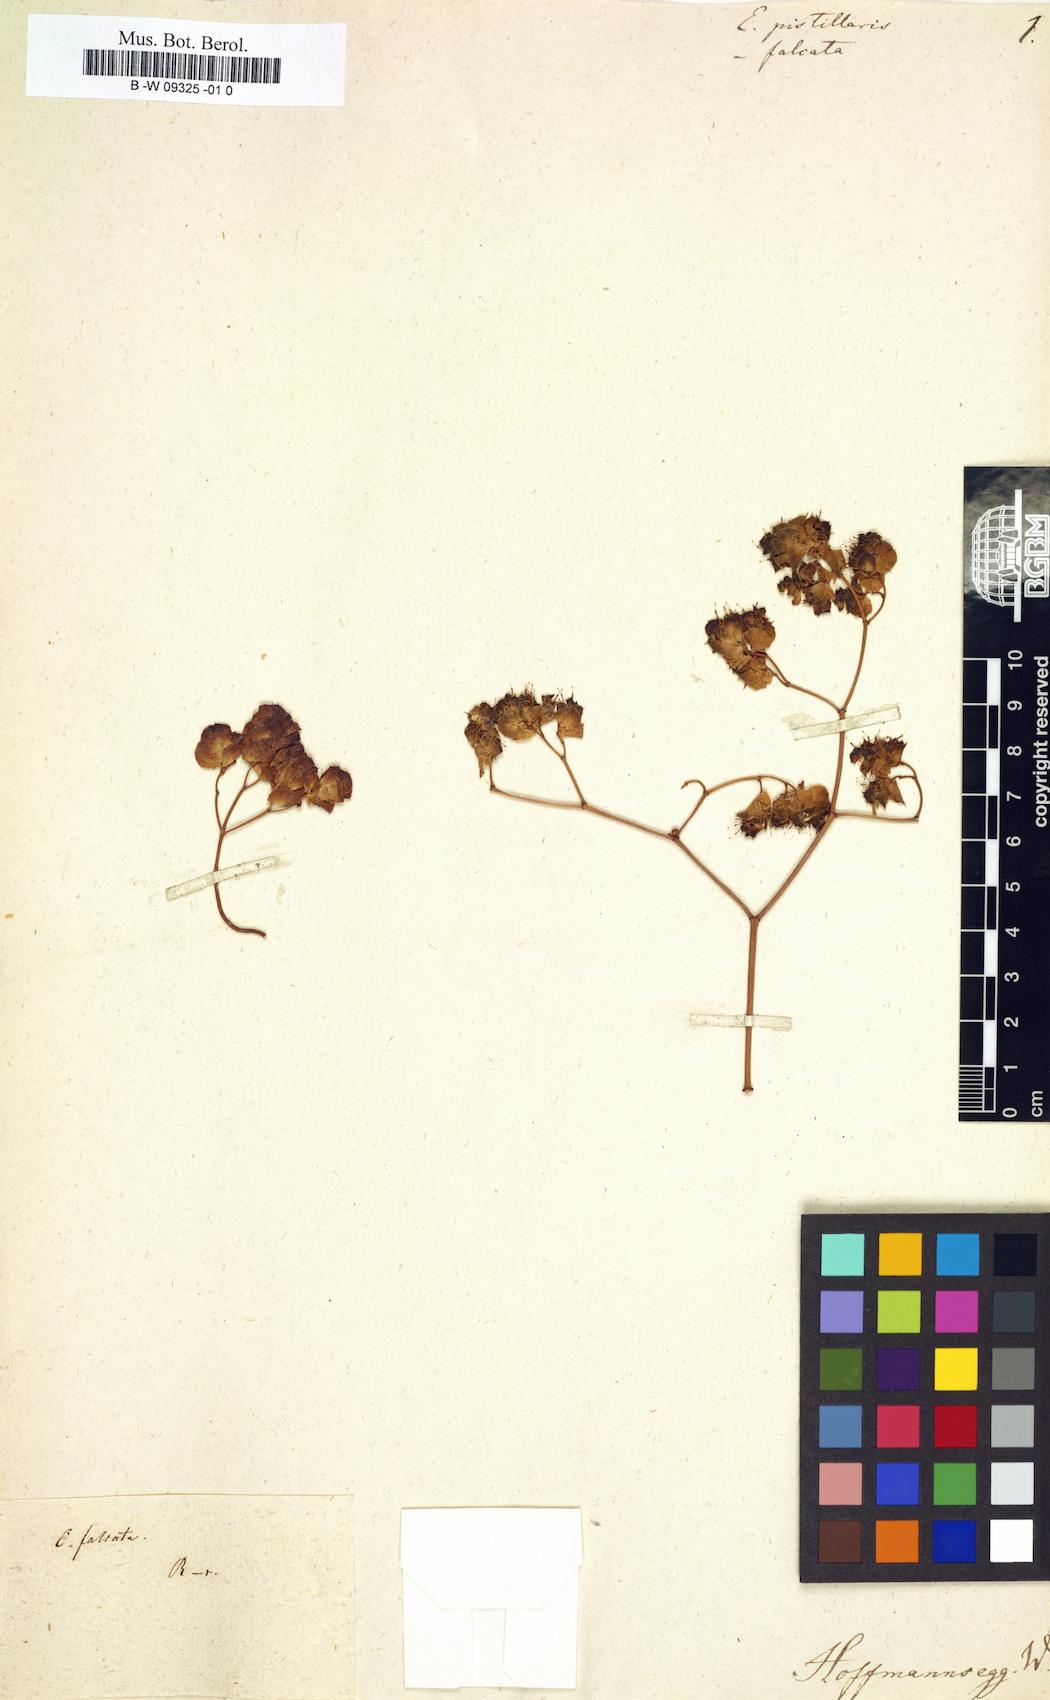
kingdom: Plantae
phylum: Tracheophyta
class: Magnoliopsida
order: Malpighiales
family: Euphorbiaceae
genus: Euphorbia
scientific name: Euphorbia
